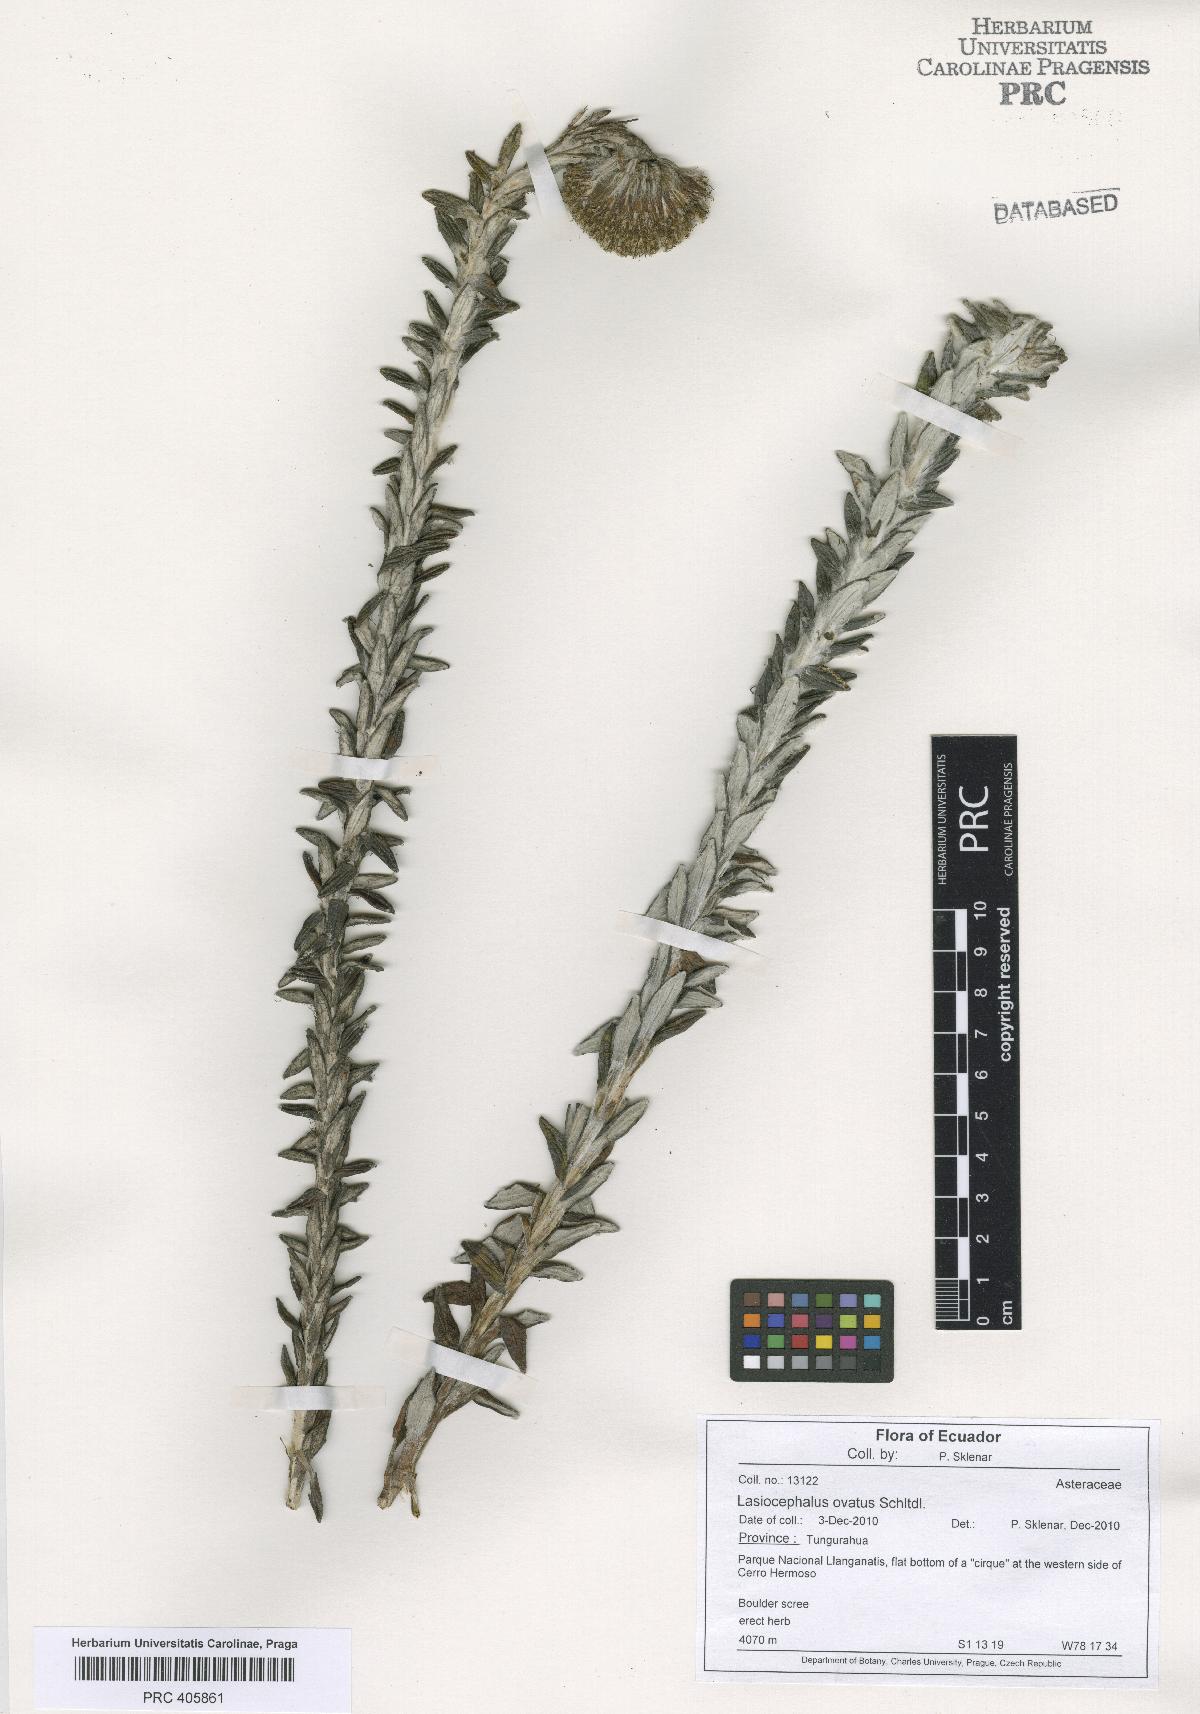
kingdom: Plantae
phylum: Tracheophyta
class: Magnoliopsida
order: Asterales
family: Asteraceae
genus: Lasiocephalus
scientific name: Lasiocephalus ovatus
